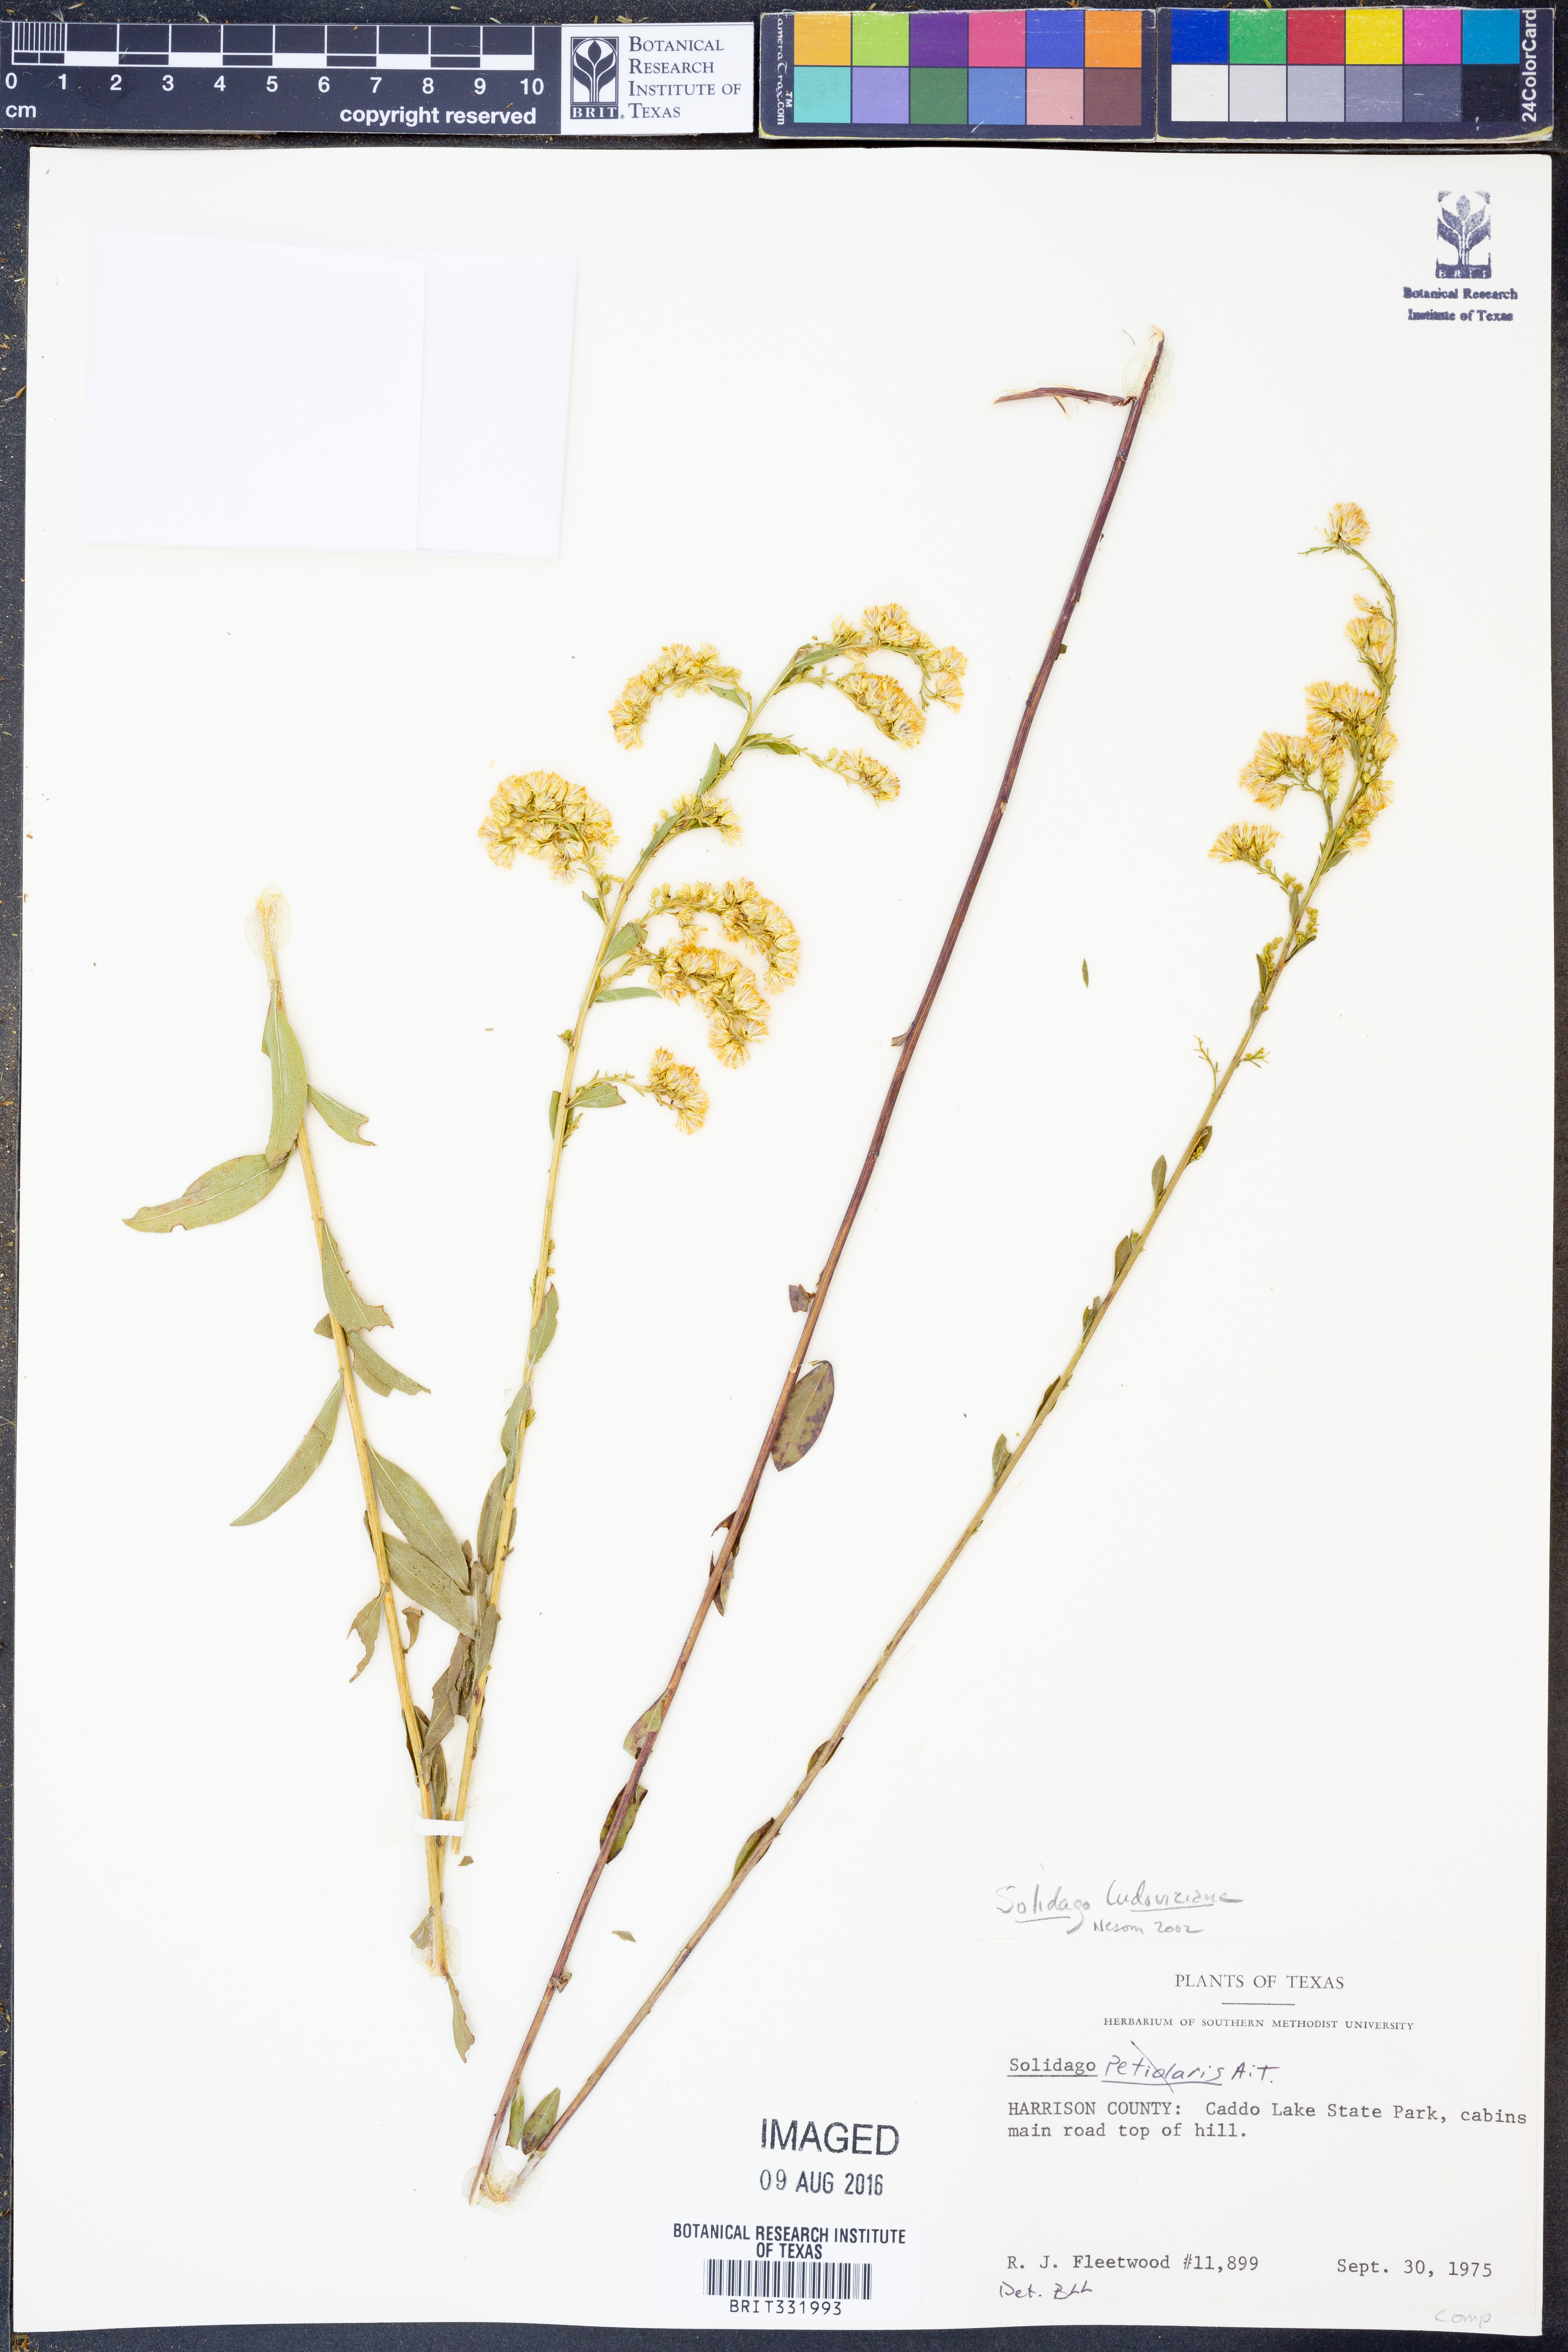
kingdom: Plantae
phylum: Tracheophyta
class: Magnoliopsida
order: Asterales
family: Asteraceae
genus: Solidago
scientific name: Solidago ludoviciana
